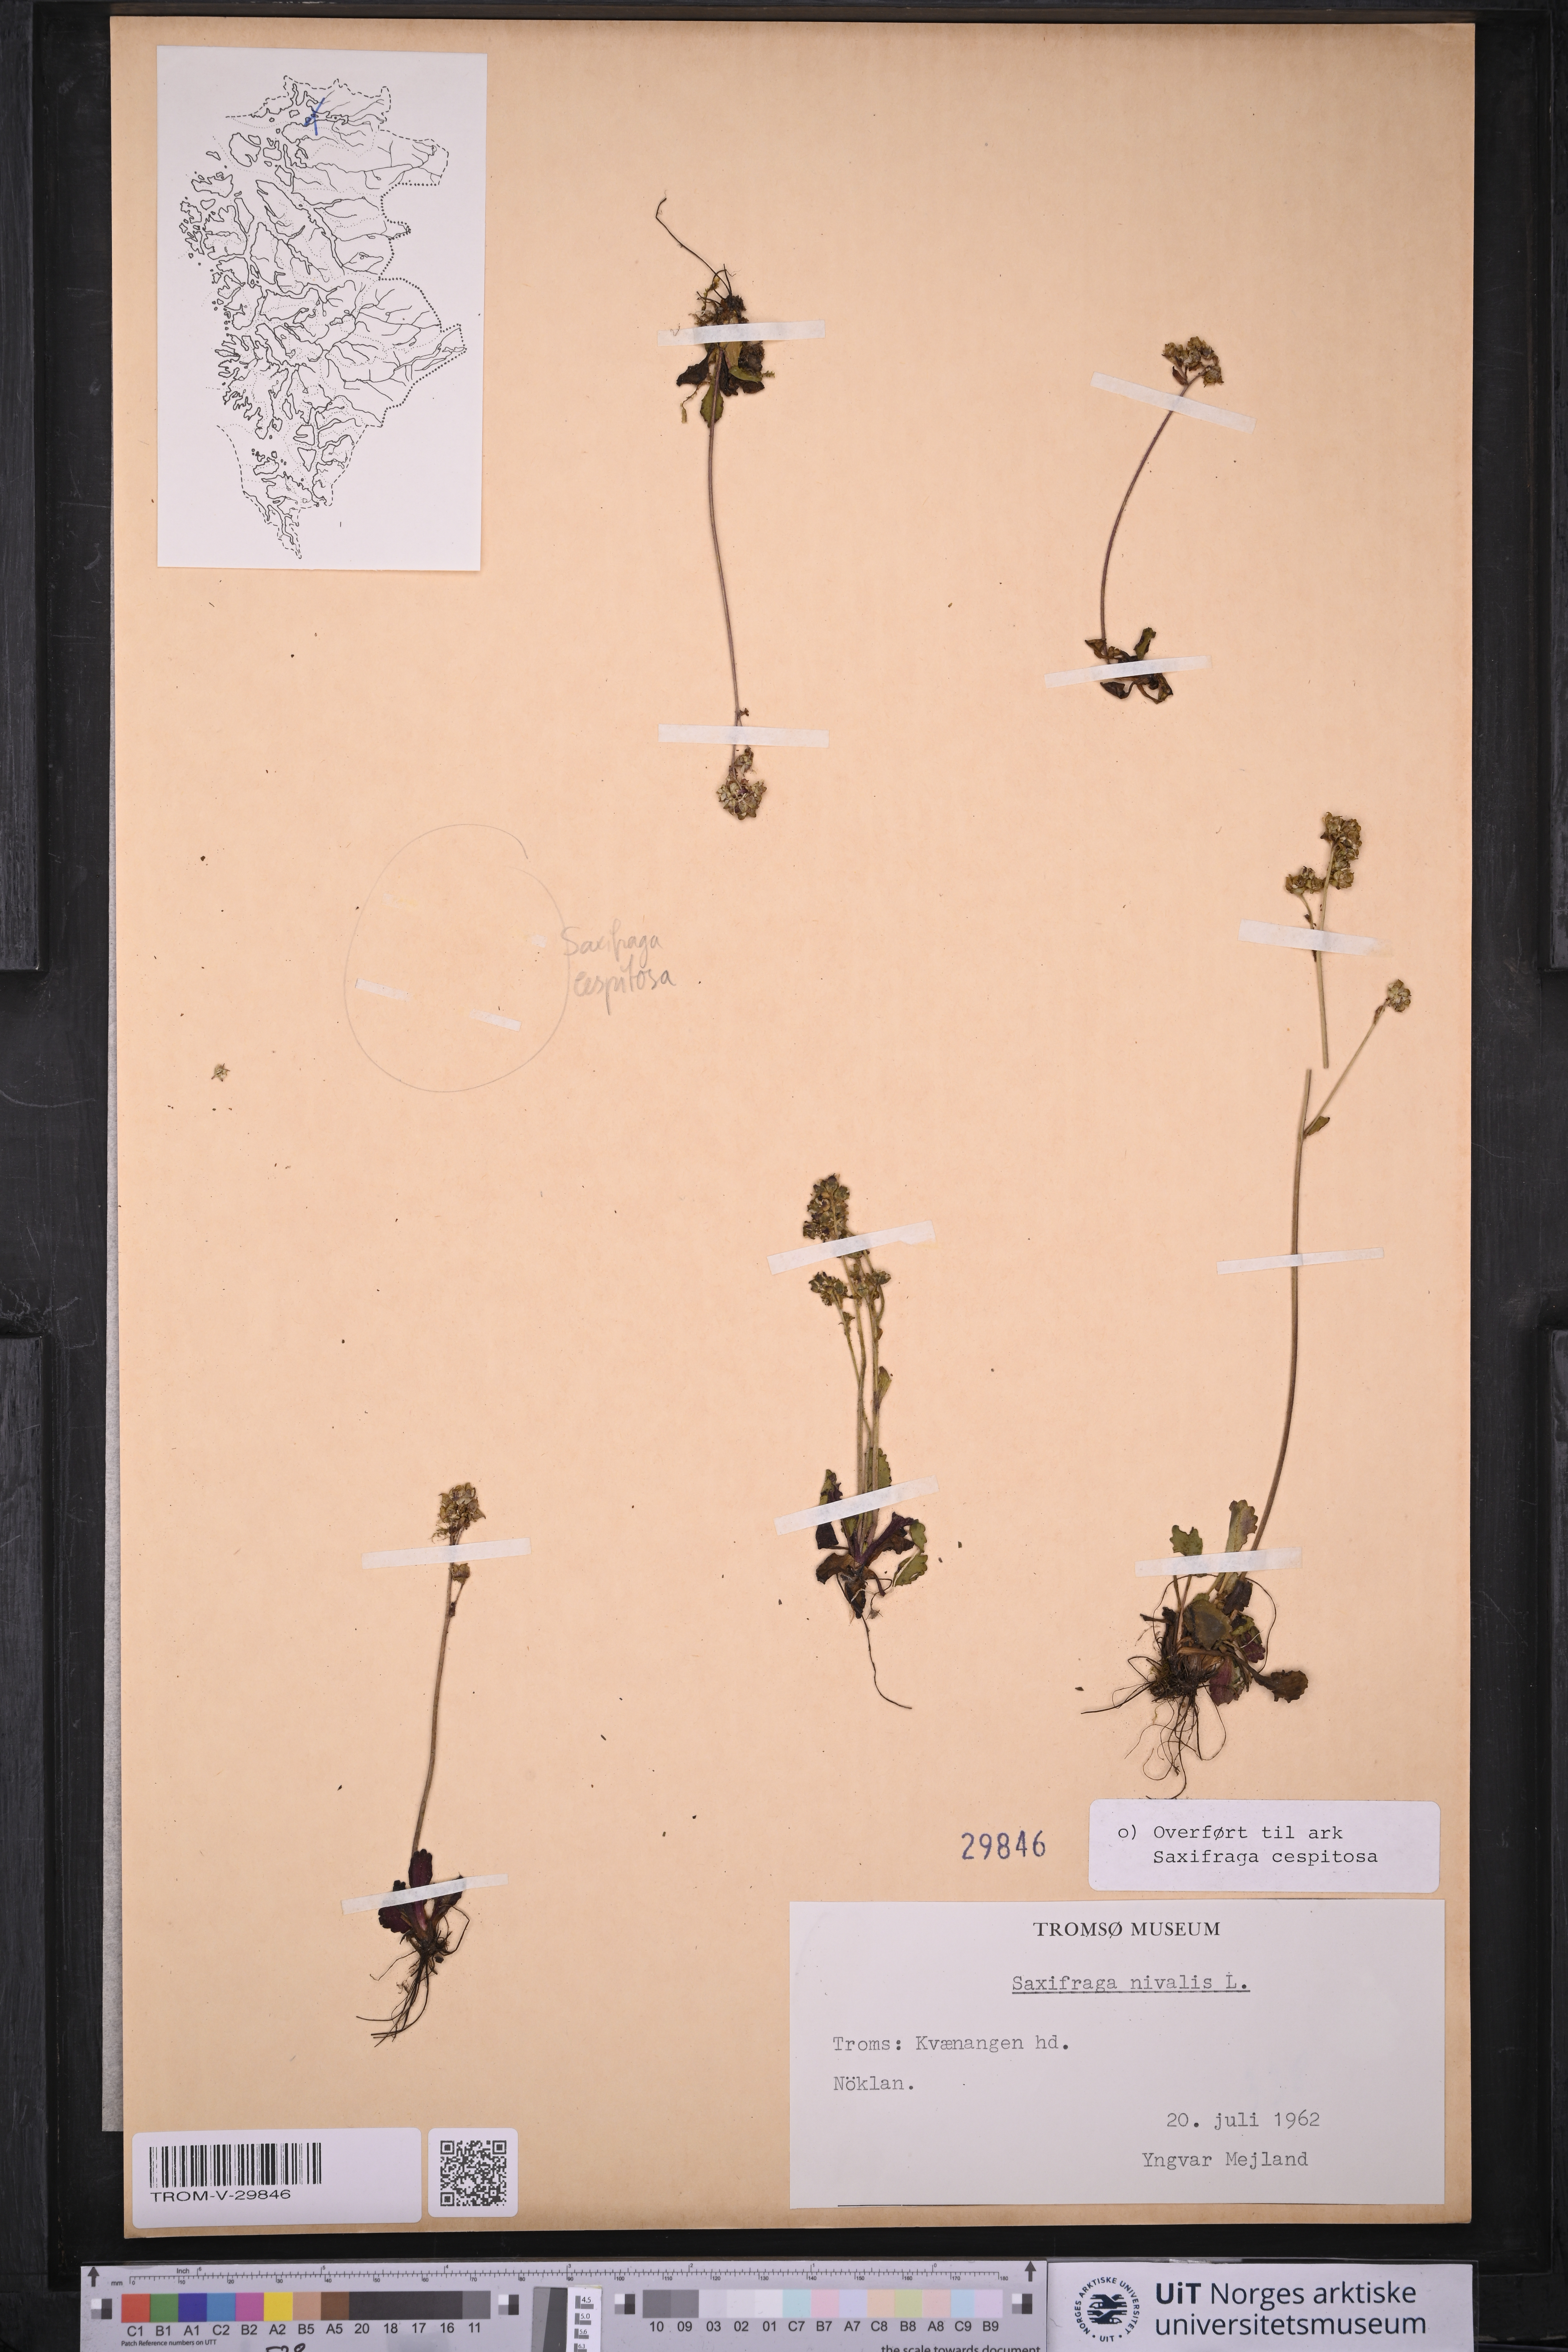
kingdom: Plantae
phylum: Tracheophyta
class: Magnoliopsida
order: Saxifragales
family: Saxifragaceae
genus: Micranthes
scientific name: Micranthes nivalis
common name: Alpine saxifrage
